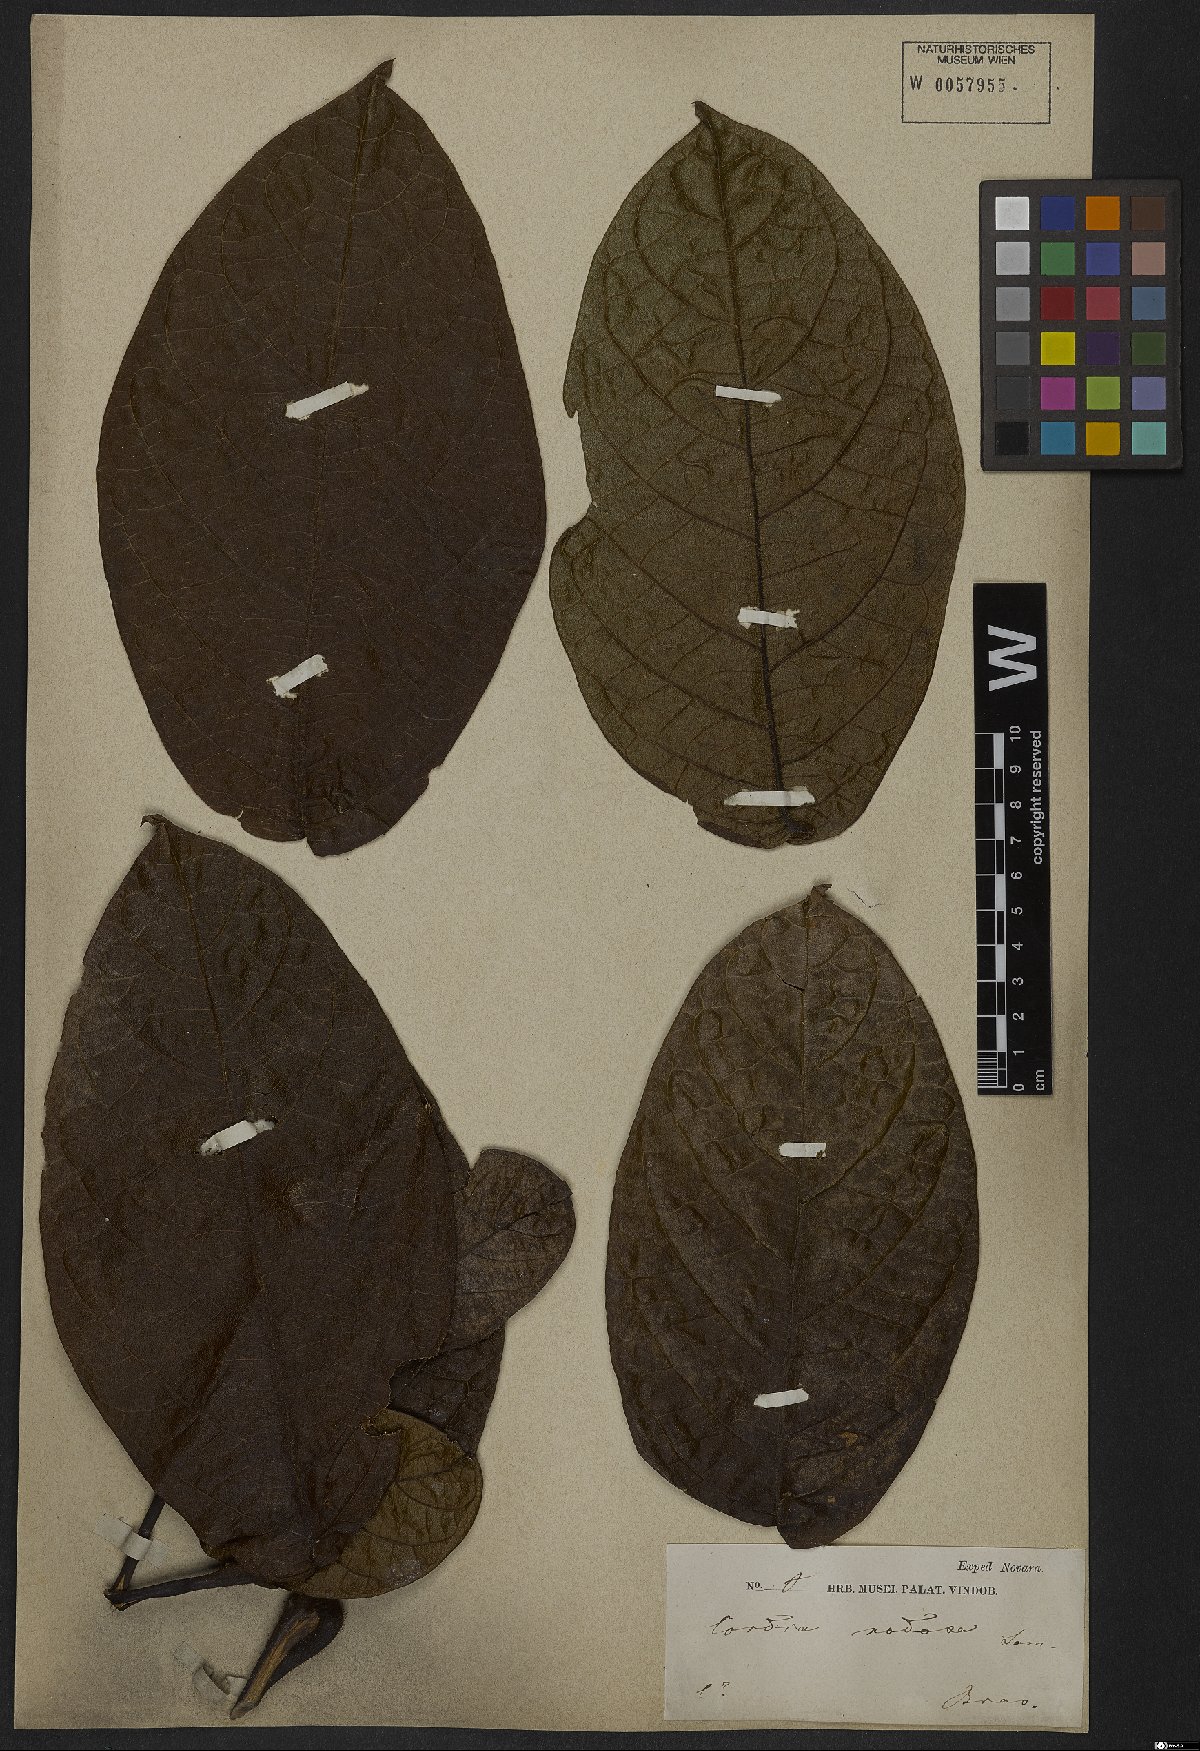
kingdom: Plantae
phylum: Tracheophyta
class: Magnoliopsida
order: Boraginales
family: Cordiaceae
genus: Cordia
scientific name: Cordia nodosa
